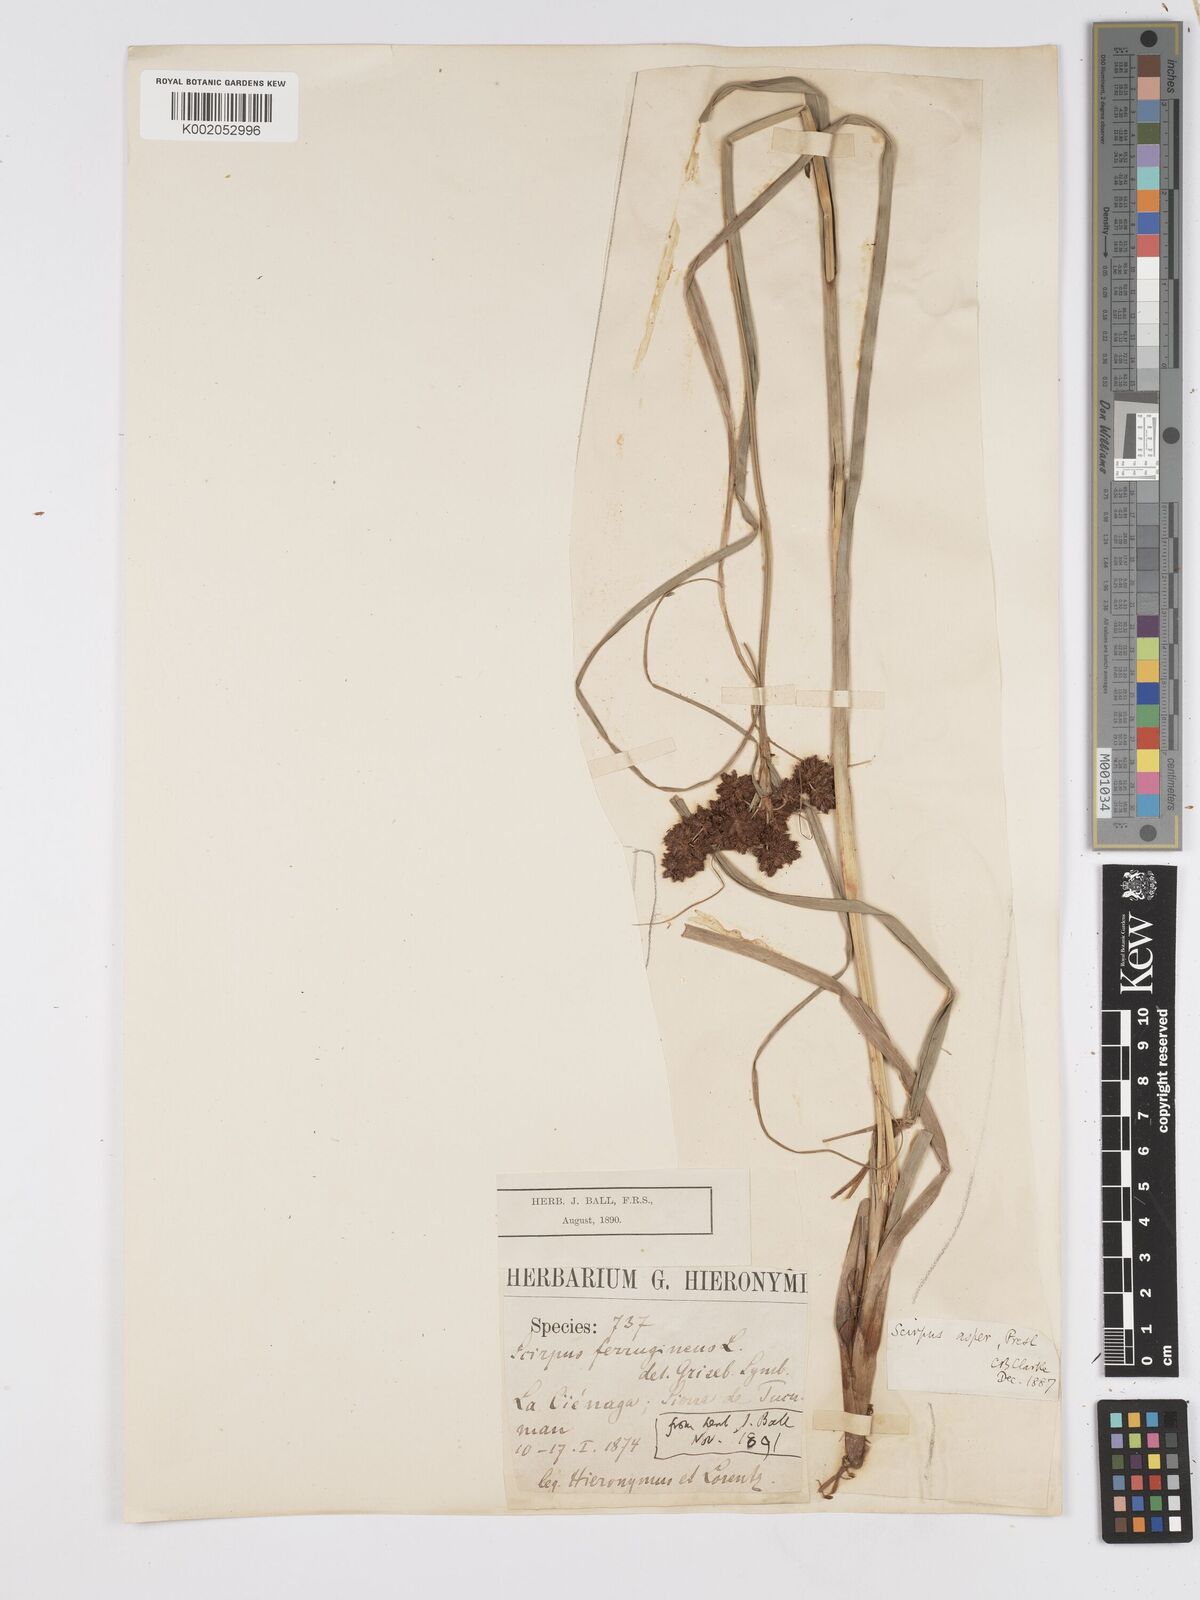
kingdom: Plantae
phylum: Tracheophyta
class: Liliopsida
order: Poales
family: Cyperaceae
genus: Rhodoscirpus
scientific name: Rhodoscirpus asper
